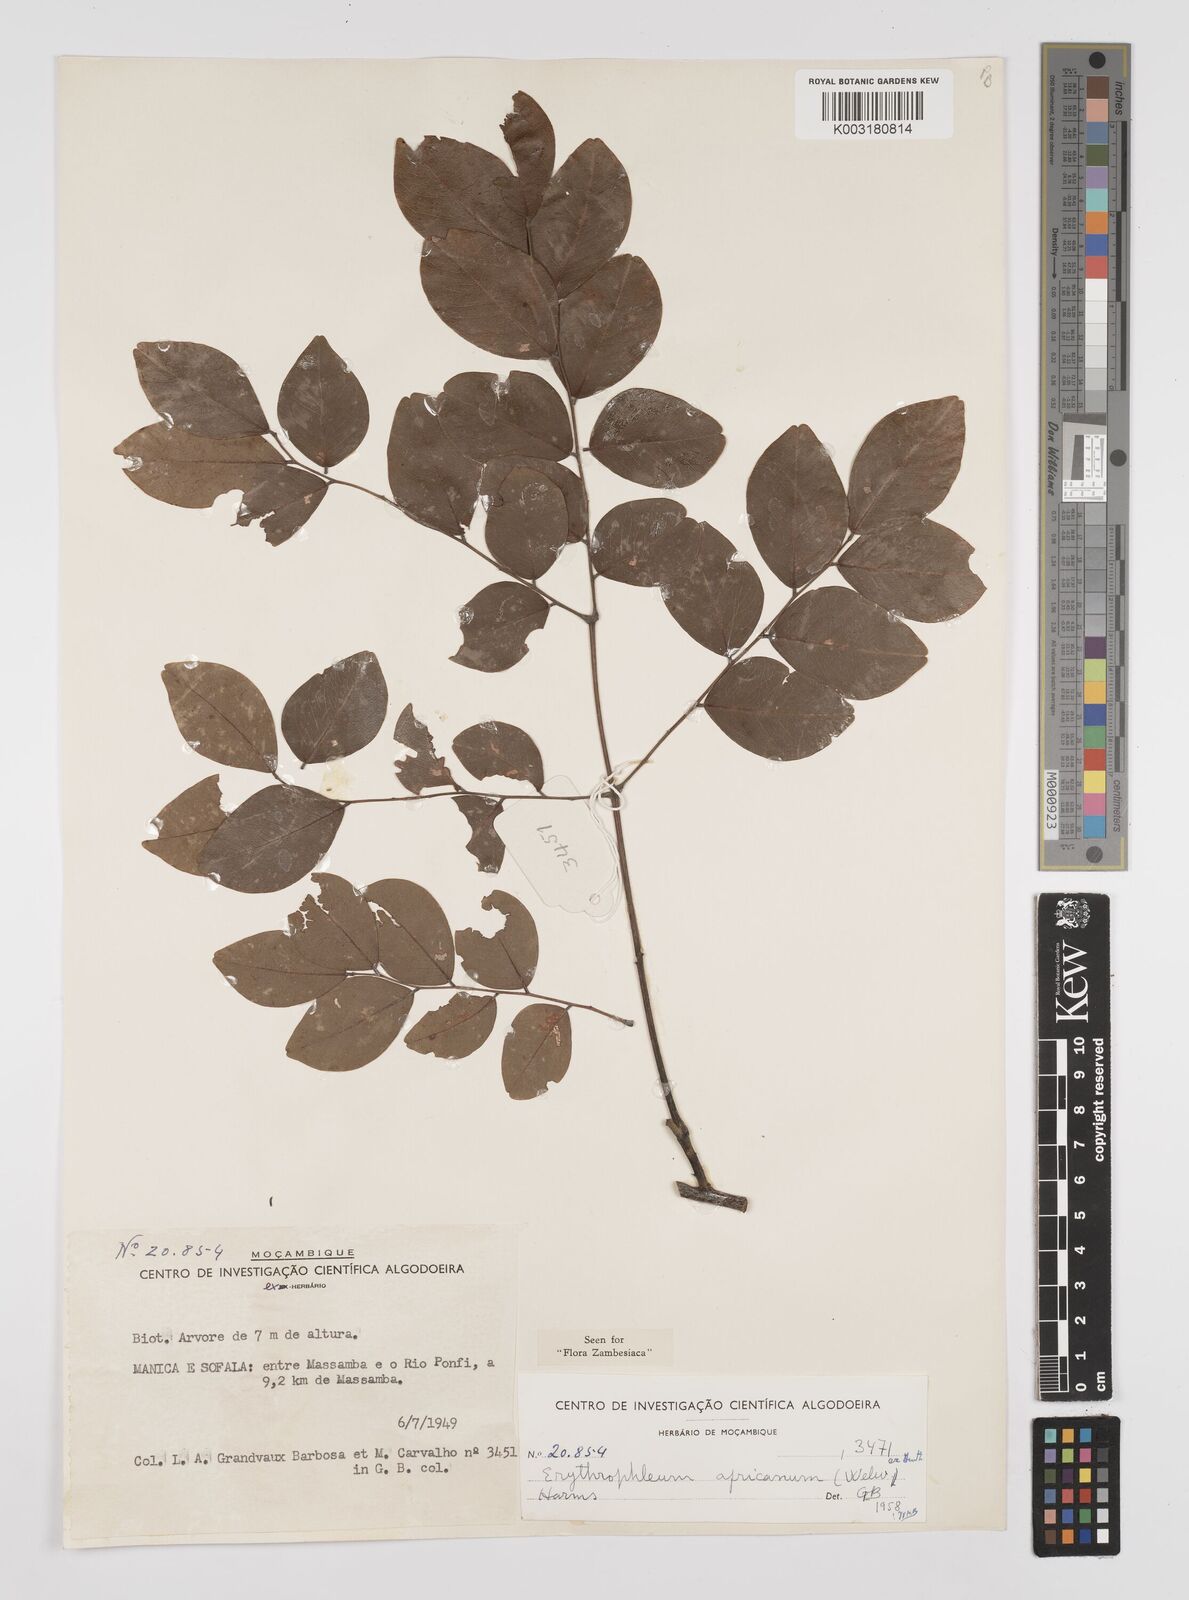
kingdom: Plantae
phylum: Tracheophyta
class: Magnoliopsida
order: Fabales
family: Fabaceae
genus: Peltophorum
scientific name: Peltophorum africanum
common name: African black wattle
